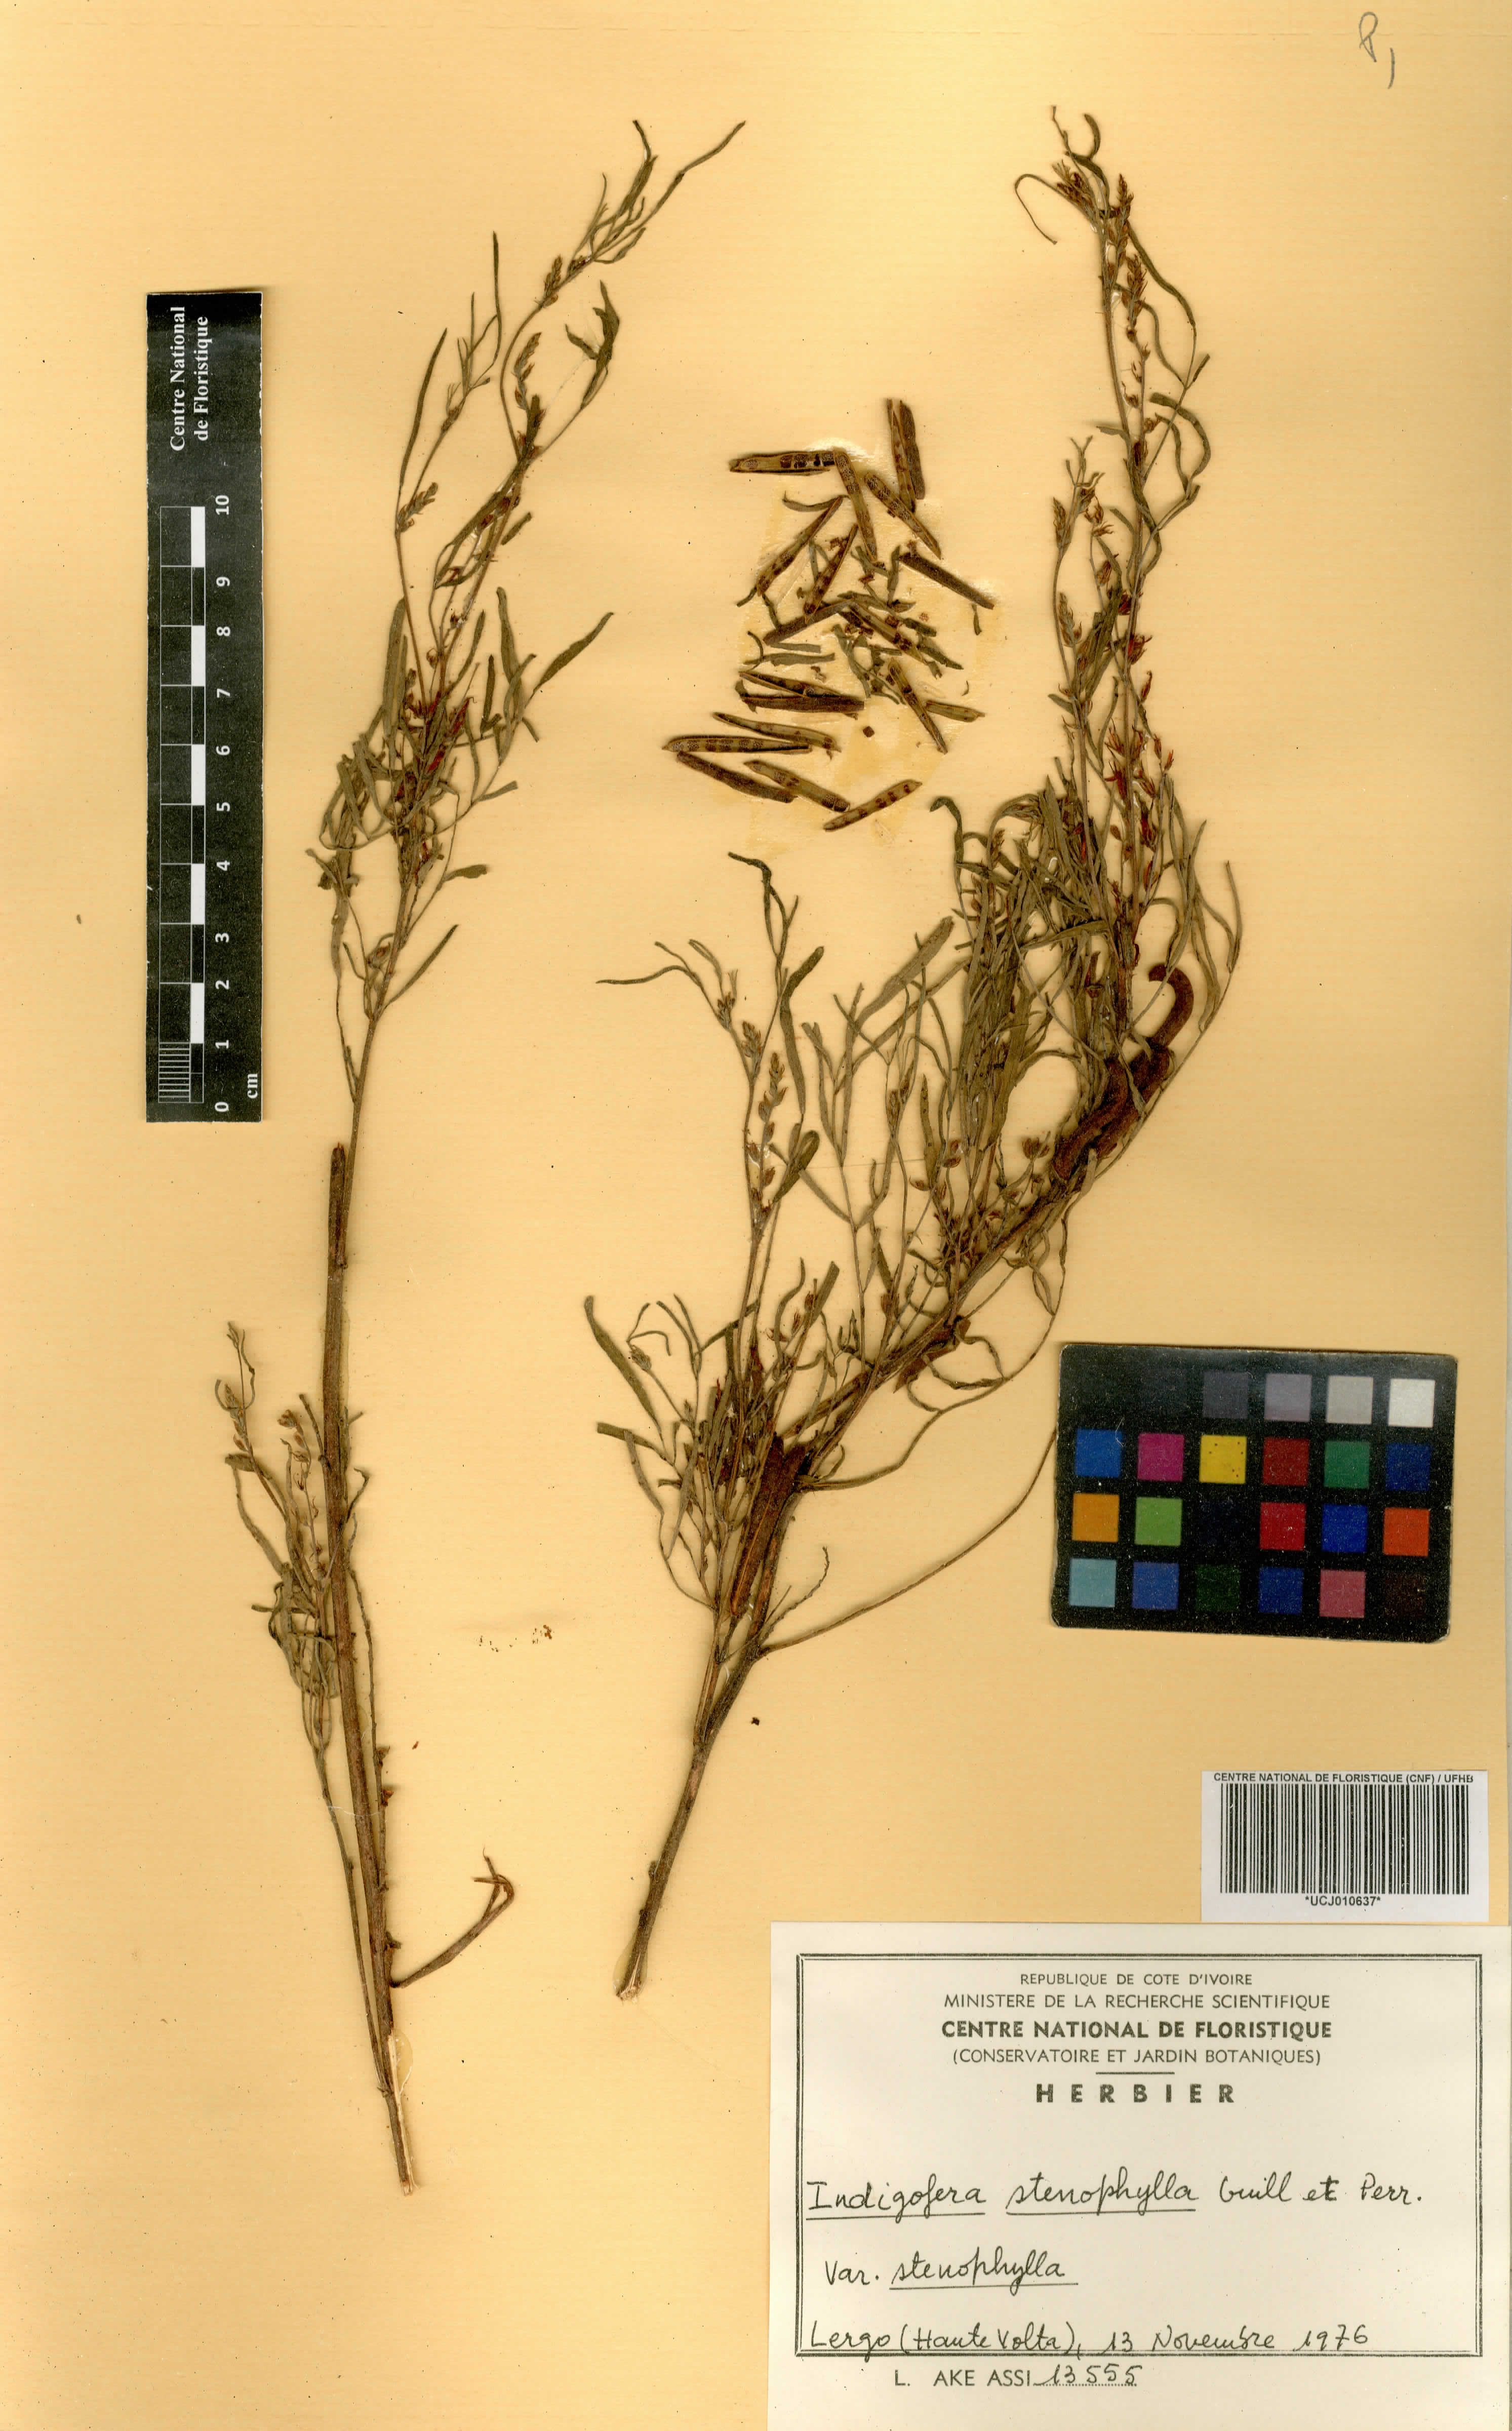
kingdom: Plantae
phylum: Tracheophyta
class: Magnoliopsida
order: Fabales
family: Fabaceae
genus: Indigofera
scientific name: Indigofera suffruticosa
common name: Anil de pasto
